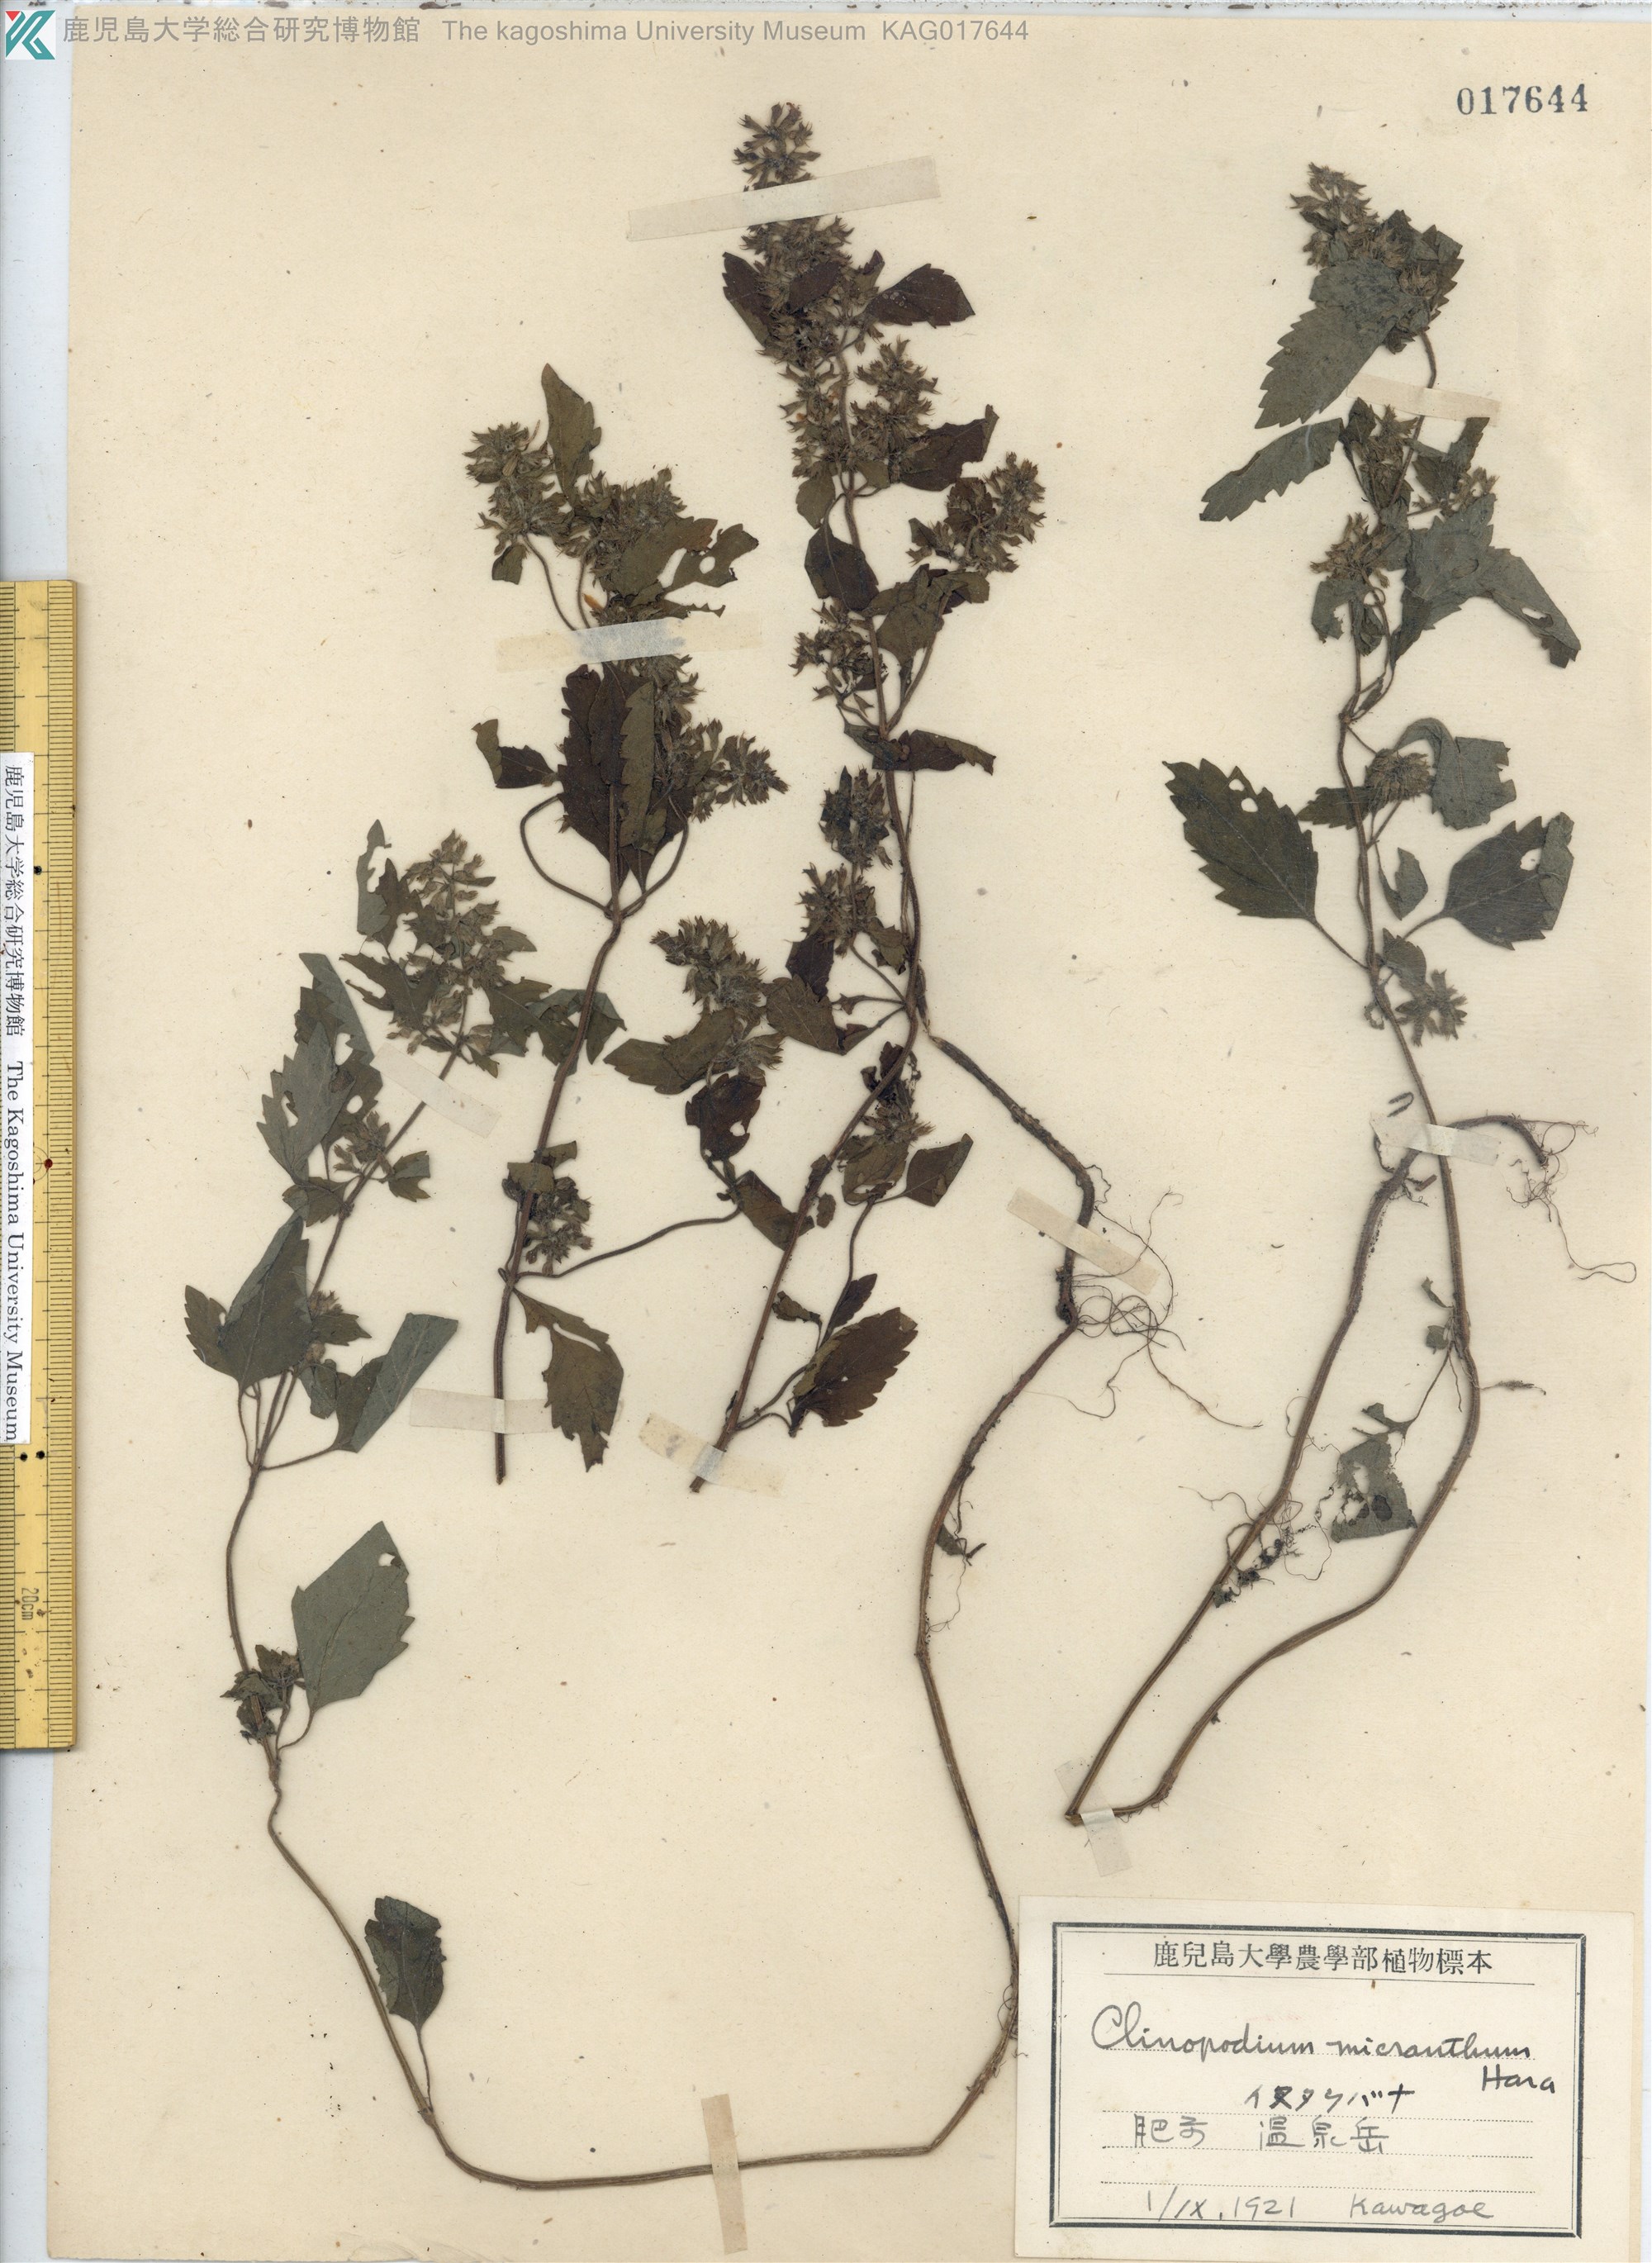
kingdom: Plantae
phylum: Tracheophyta
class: Magnoliopsida
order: Lamiales
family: Lamiaceae
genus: Clinopodium
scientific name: Clinopodium micranthum
